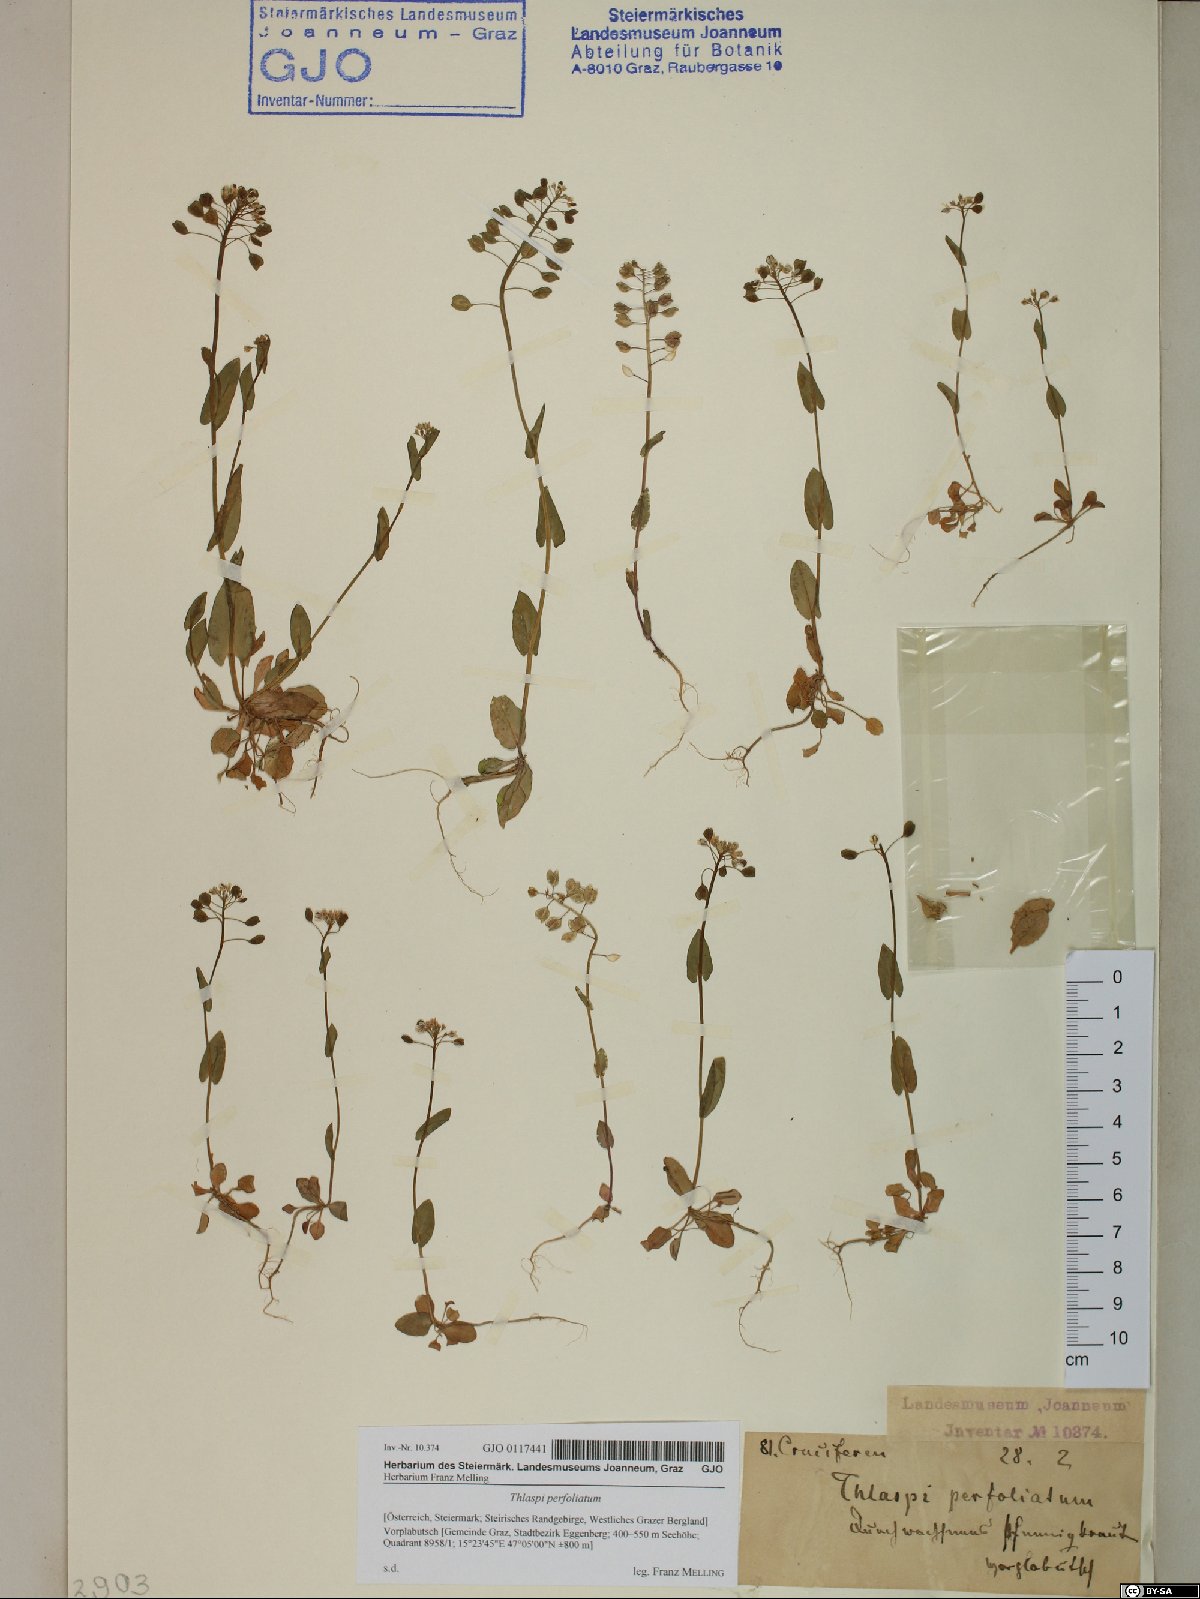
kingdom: Plantae
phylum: Tracheophyta
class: Magnoliopsida
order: Brassicales
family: Brassicaceae
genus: Noccaea
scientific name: Noccaea perfoliata
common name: Perfoliate pennycress
